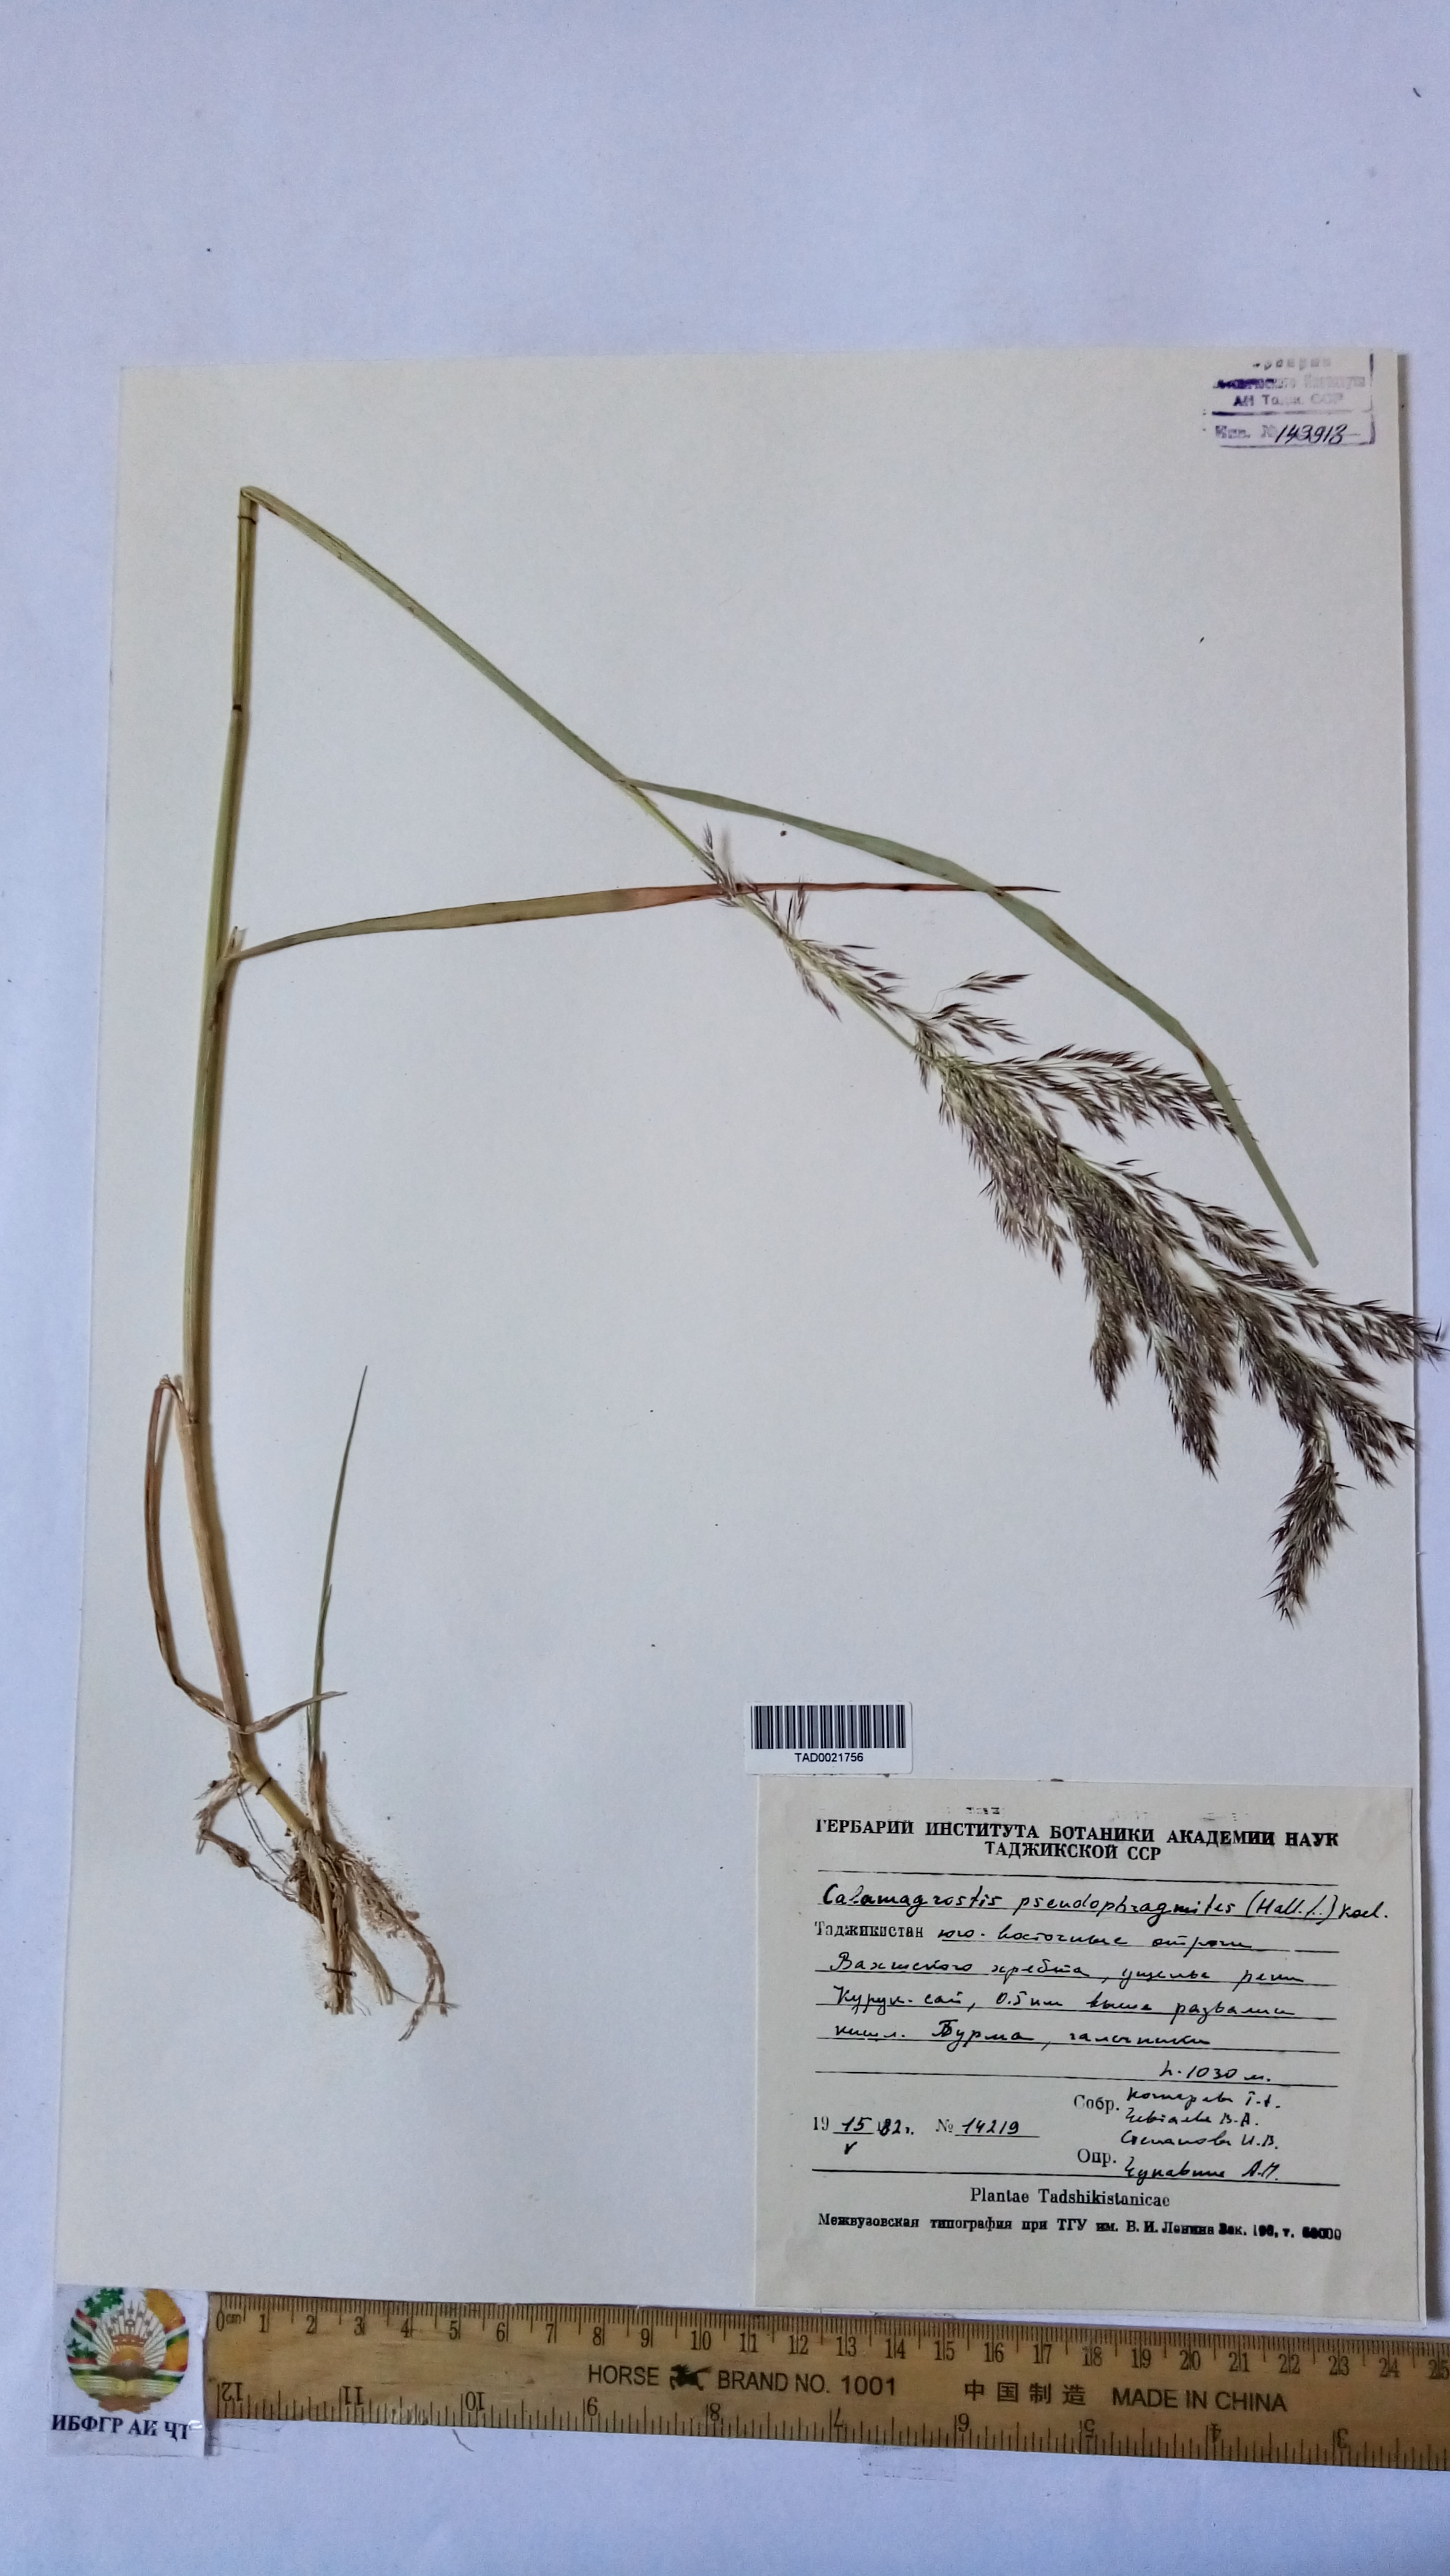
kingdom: Plantae
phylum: Tracheophyta
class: Liliopsida
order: Poales
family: Poaceae
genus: Calamagrostis
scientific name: Calamagrostis pseudophragmites
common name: Coastal small-reed
